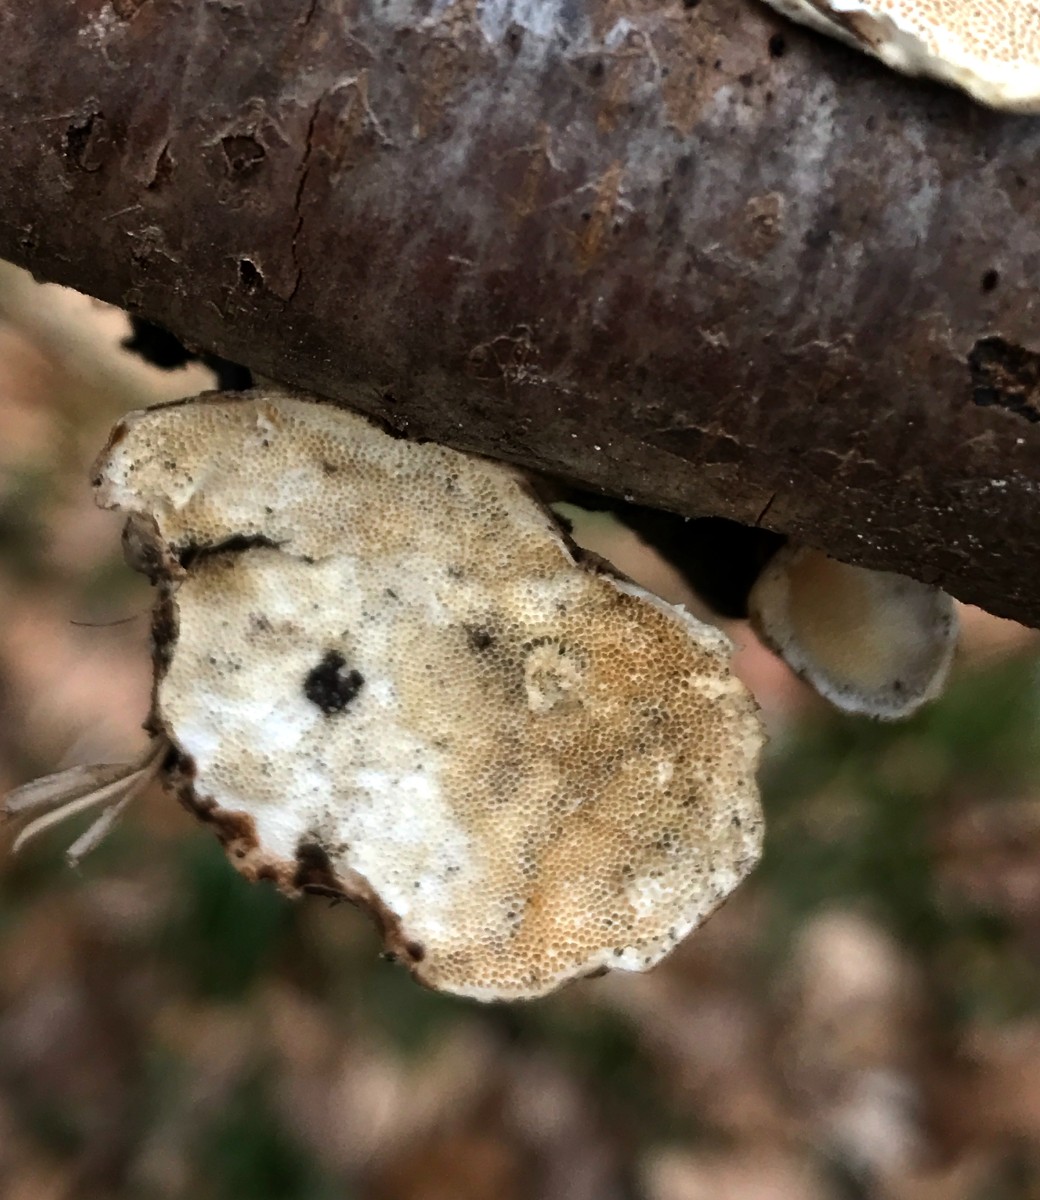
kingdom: Fungi
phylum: Basidiomycota
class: Agaricomycetes
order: Polyporales
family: Polyporaceae
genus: Trametes
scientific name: Trametes
